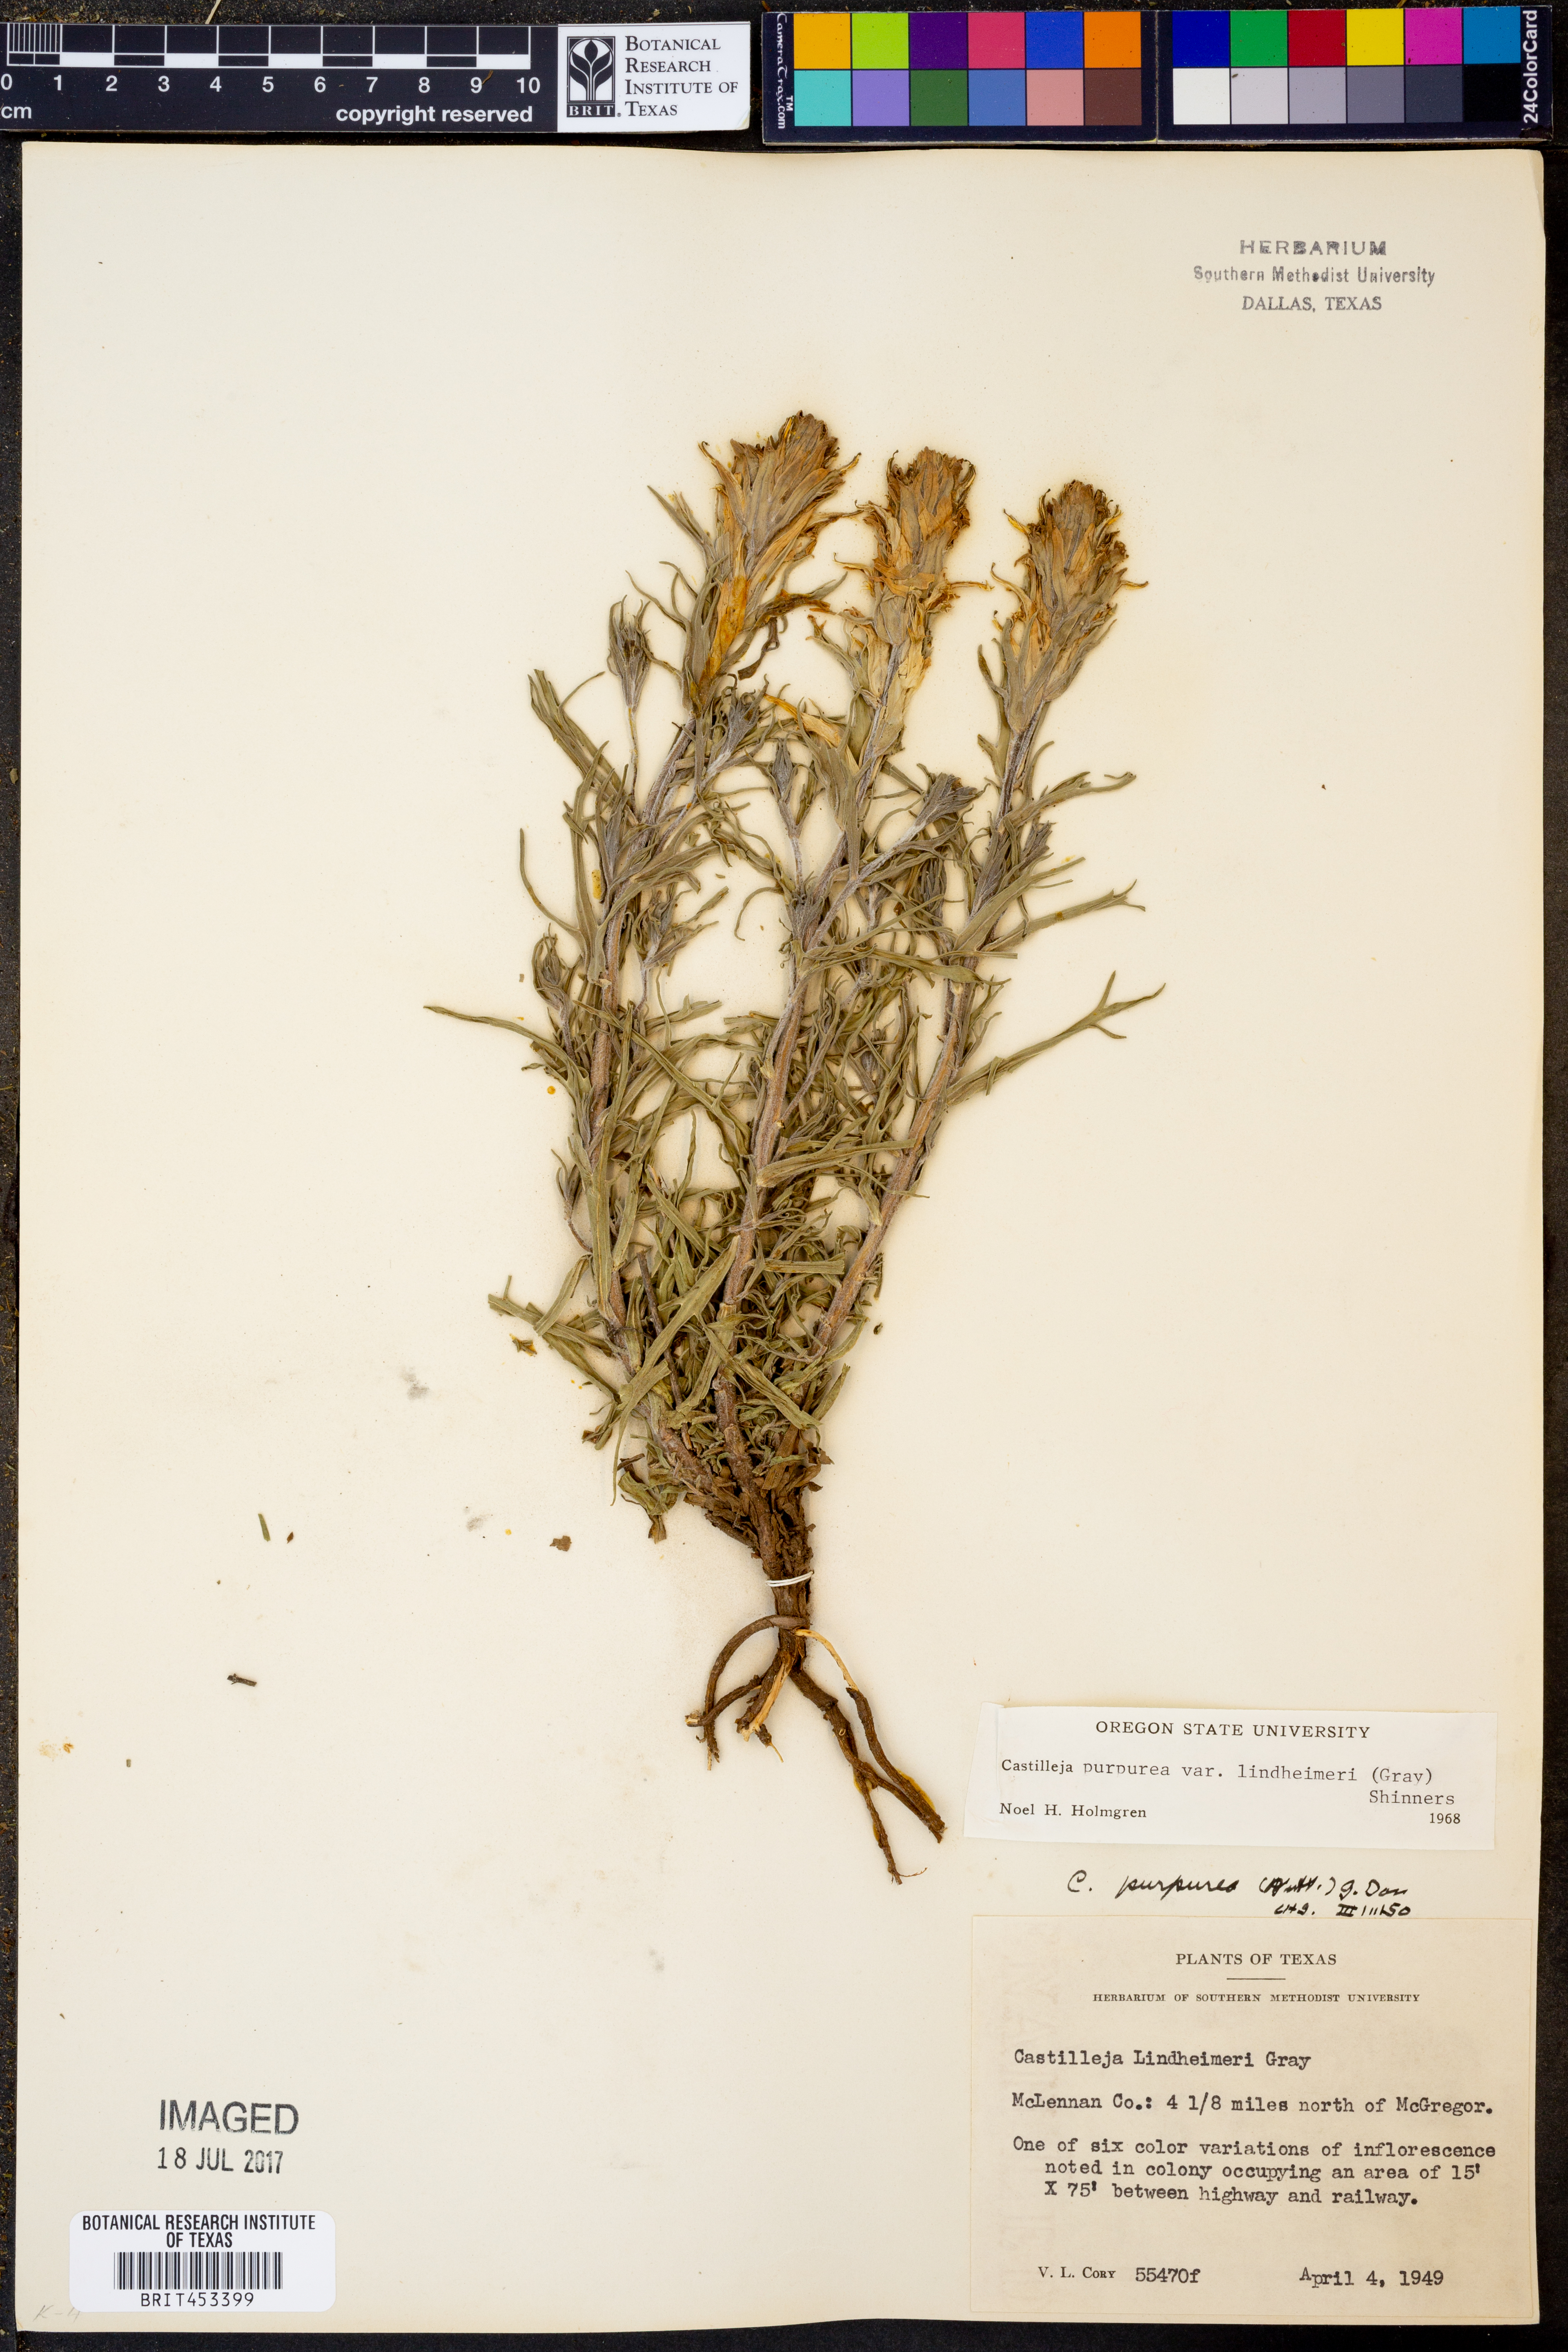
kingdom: Plantae
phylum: Tracheophyta
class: Magnoliopsida
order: Lamiales
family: Orobanchaceae
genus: Castilleja
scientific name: Castilleja lindheimeri
